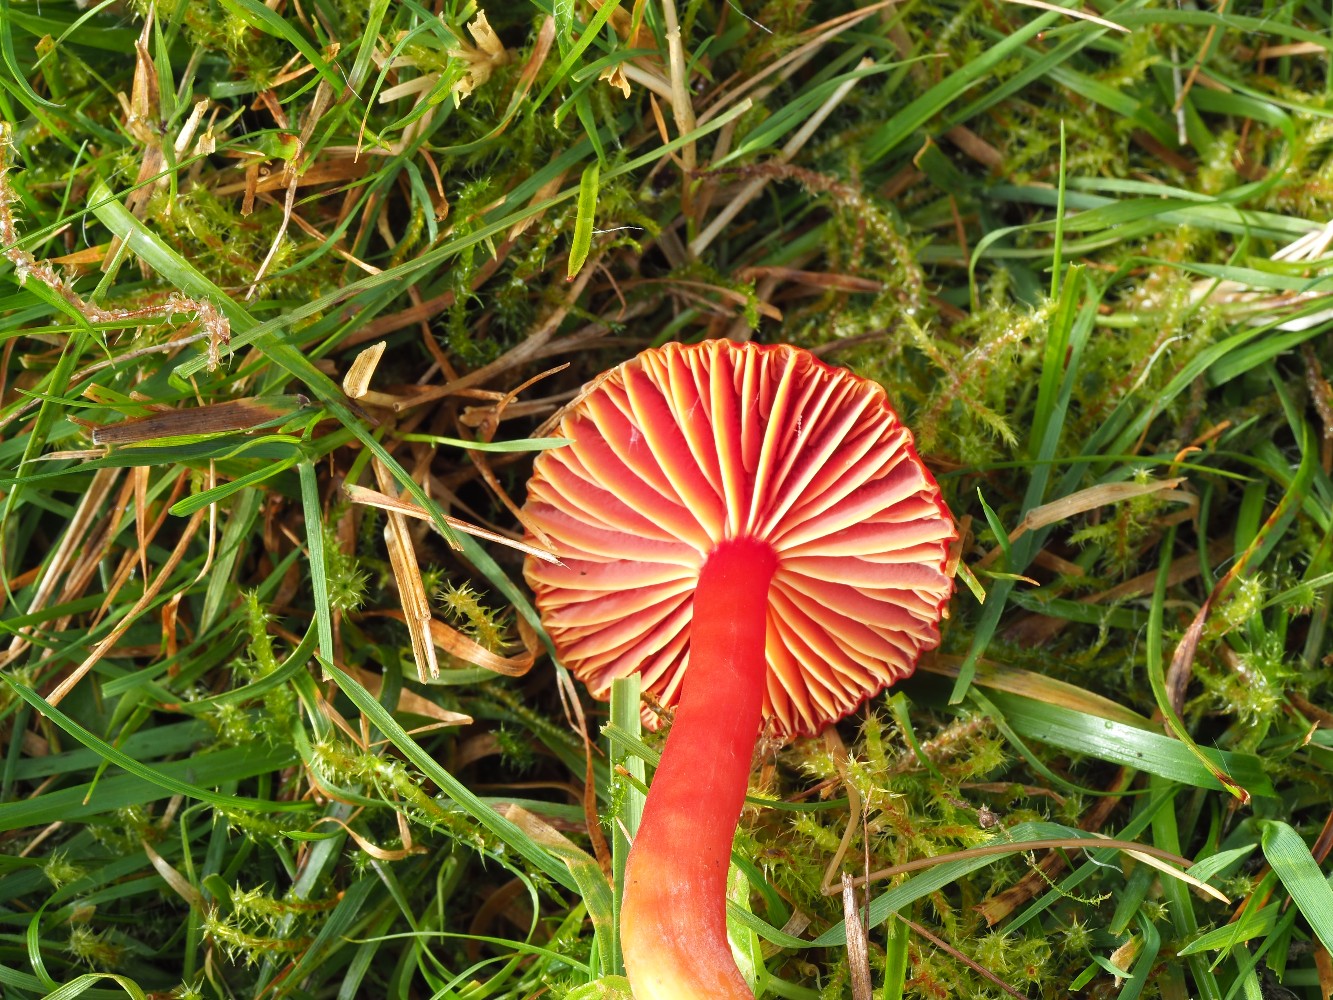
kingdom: Fungi
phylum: Basidiomycota
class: Agaricomycetes
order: Agaricales
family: Hygrophoraceae
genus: Hygrocybe
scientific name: Hygrocybe coccinea
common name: cinnober-vokshat
